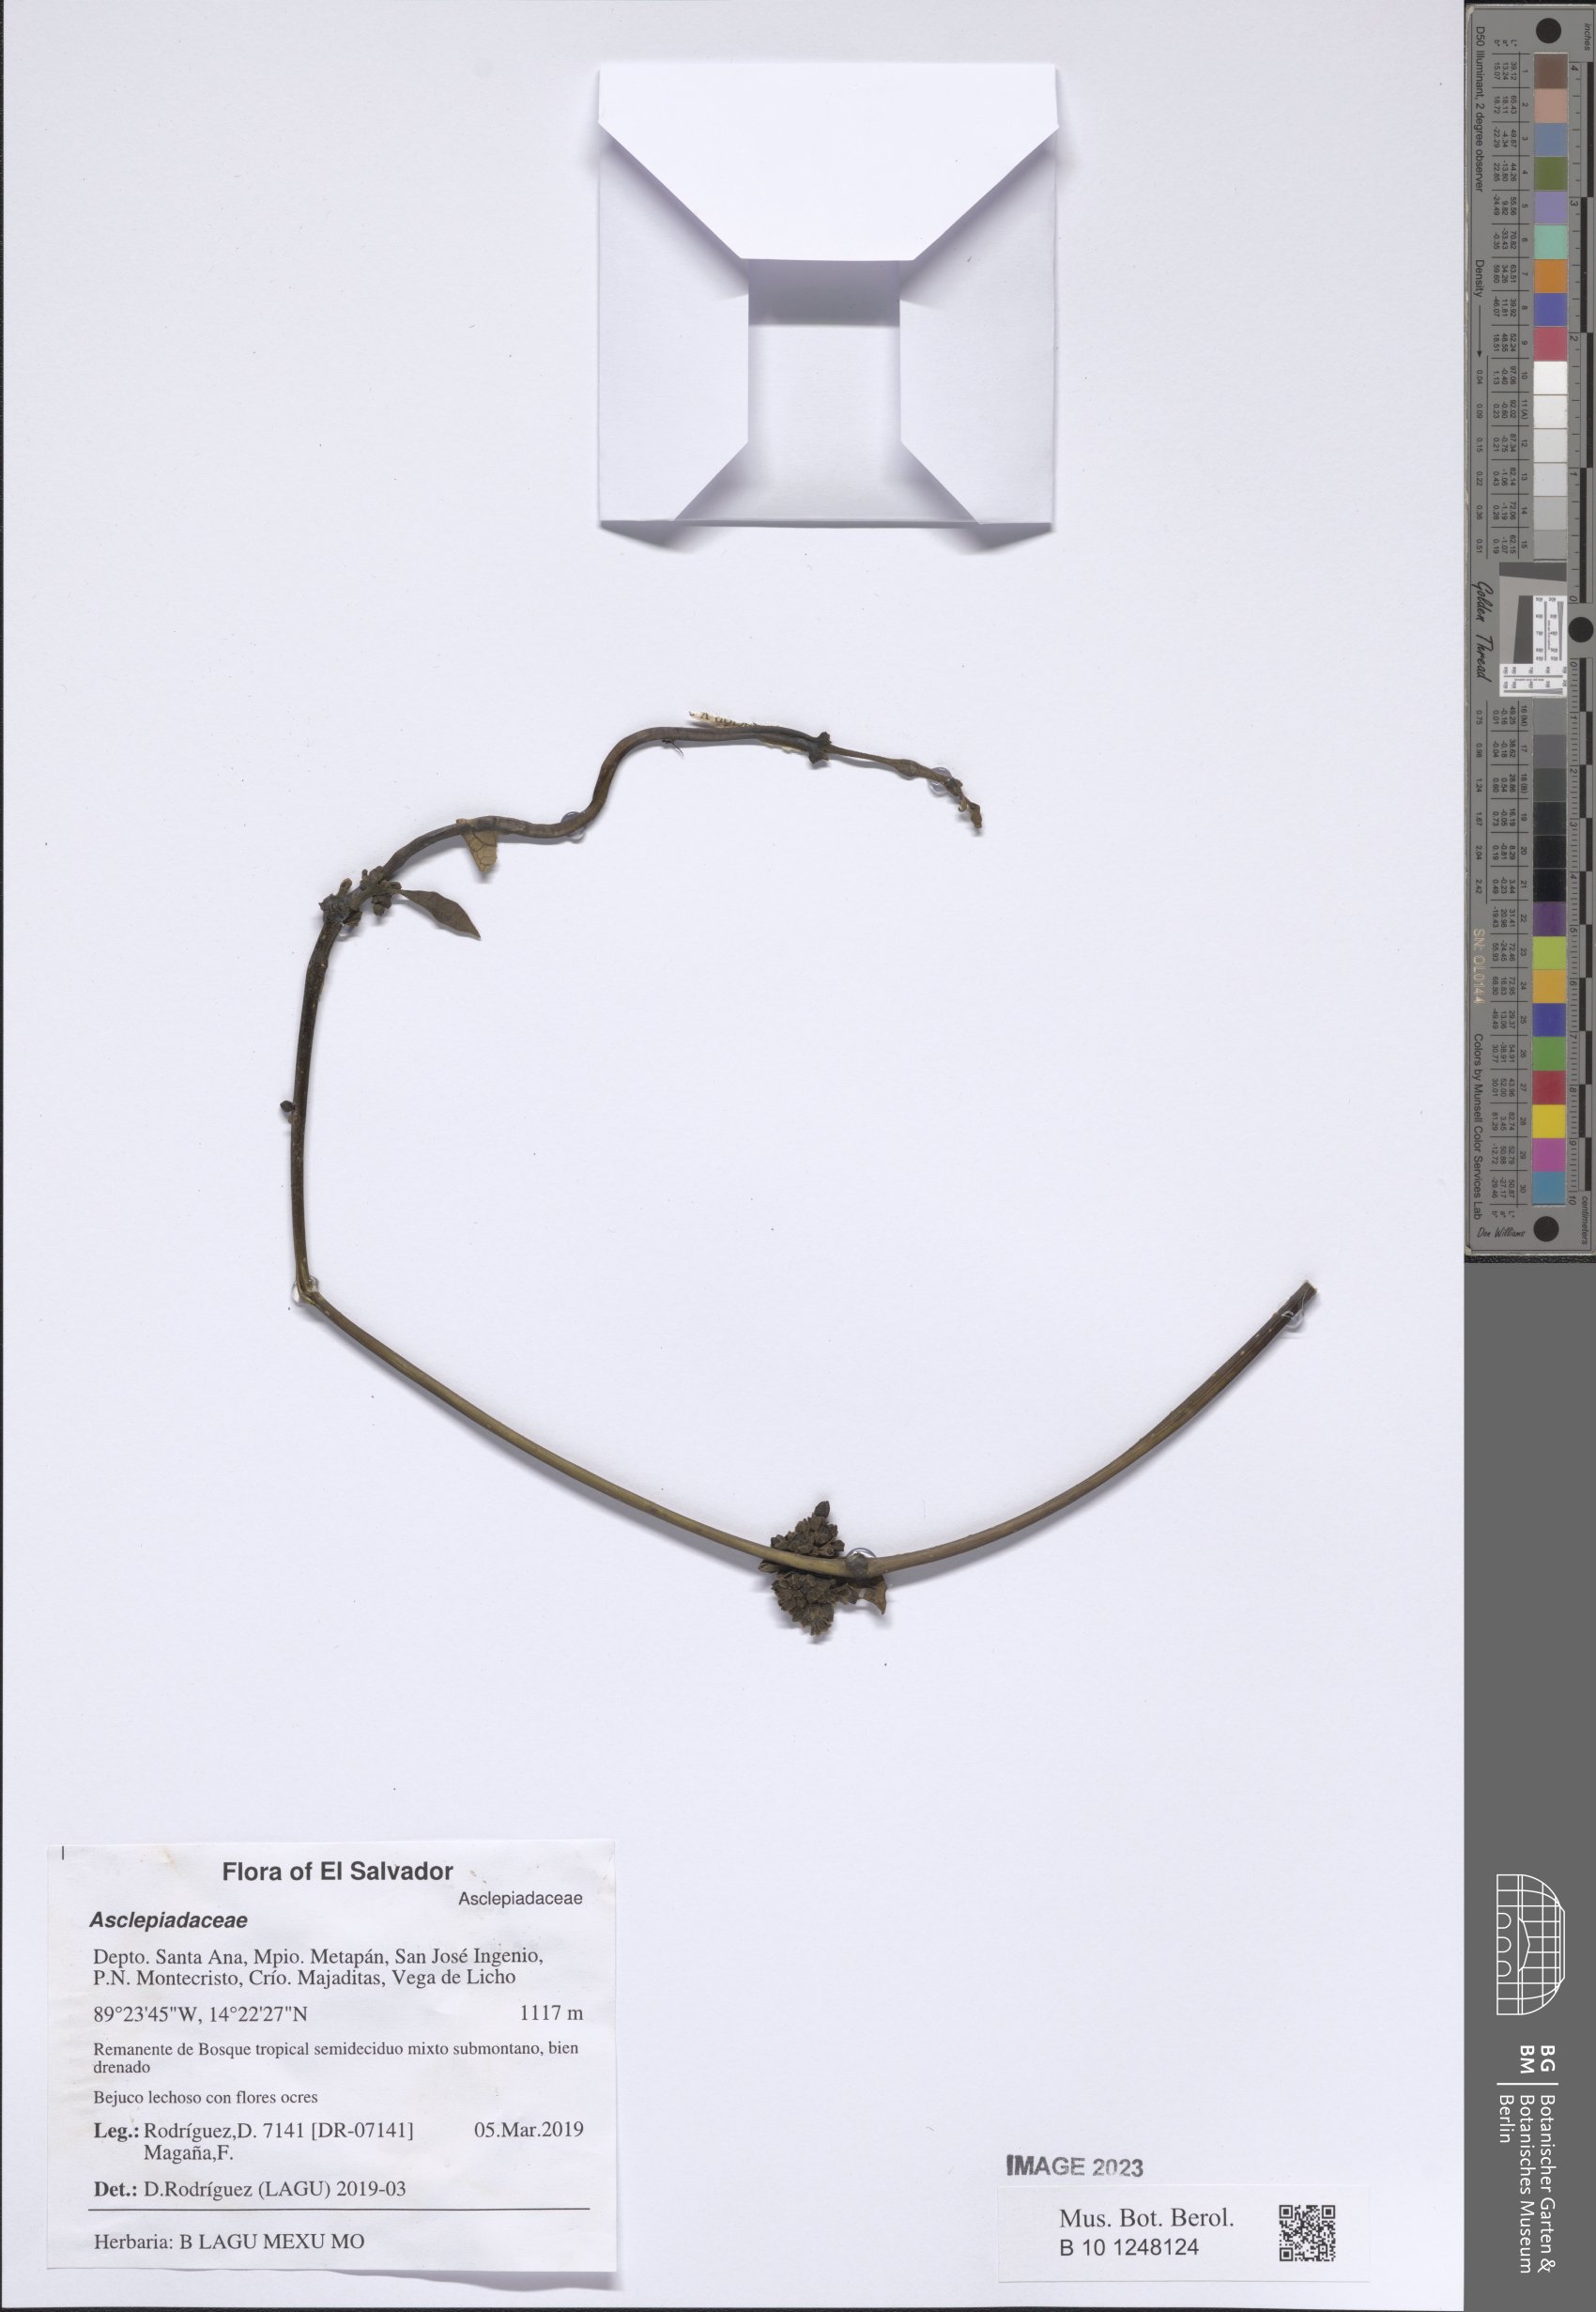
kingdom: Plantae
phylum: Tracheophyta
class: Magnoliopsida
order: Gentianales
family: Apocynaceae
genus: Ruehssia
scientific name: Ruehssia veronicae
